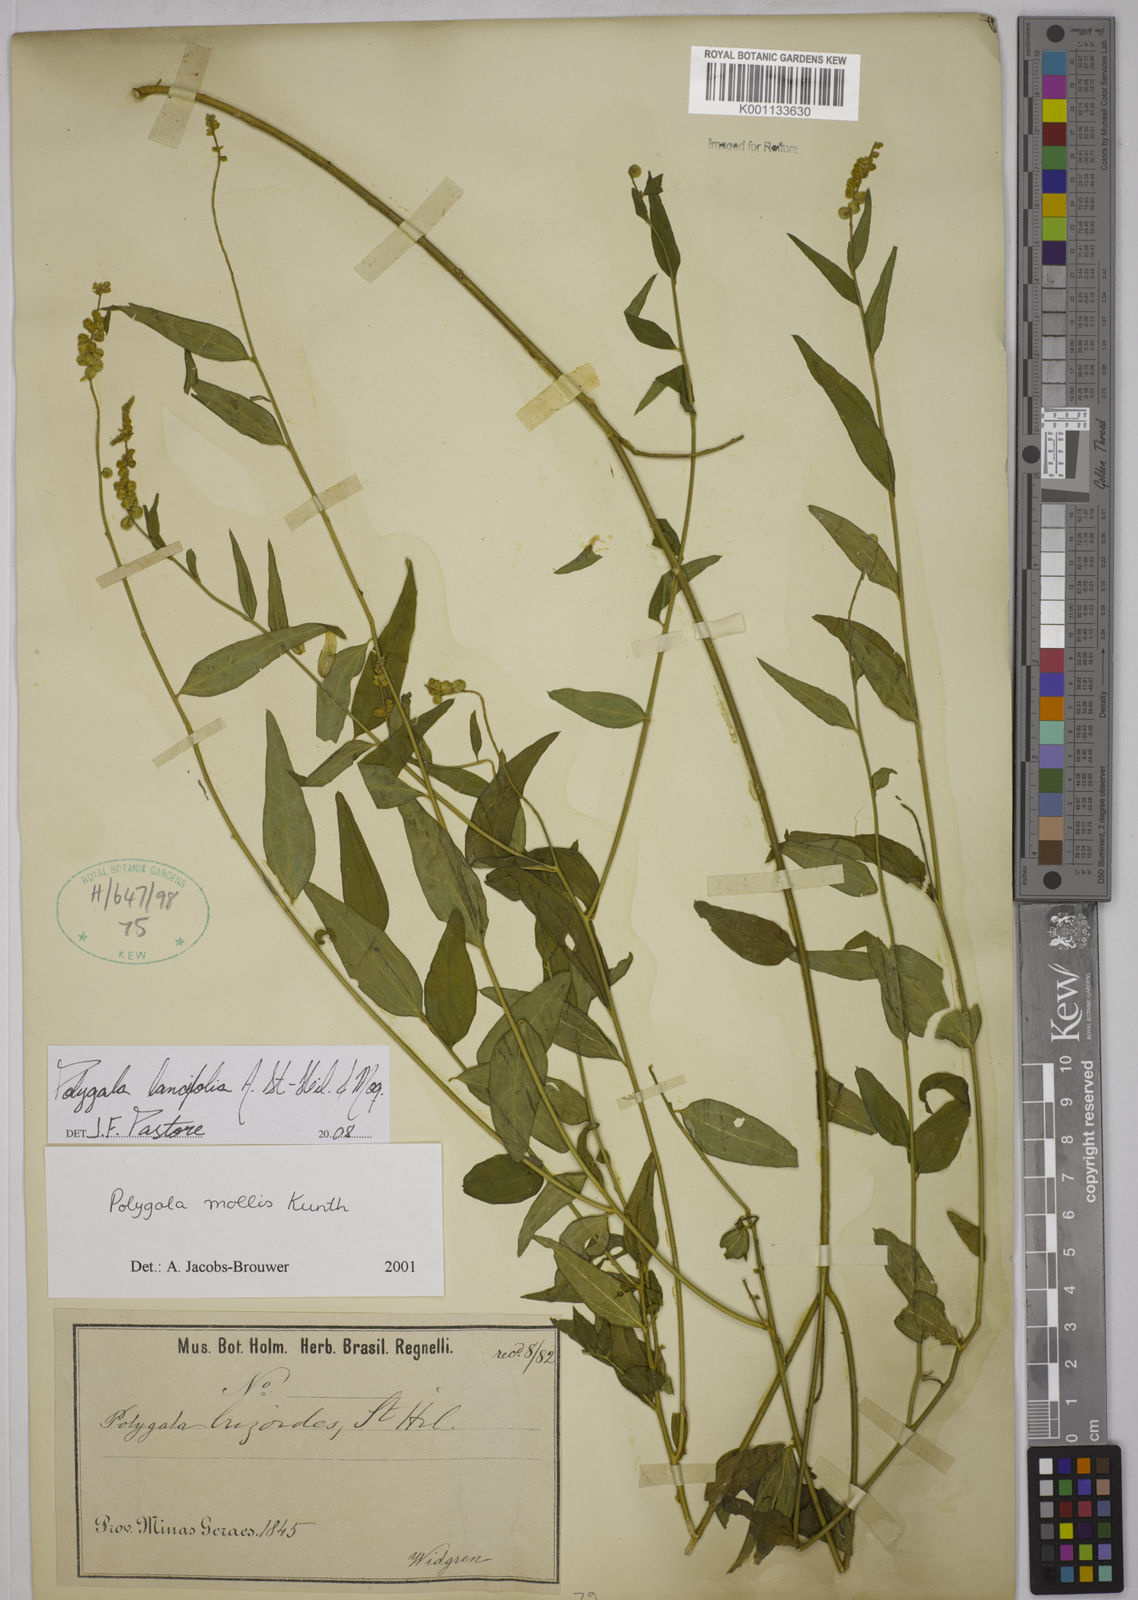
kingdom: Plantae
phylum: Tracheophyta
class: Magnoliopsida
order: Fabales
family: Polygalaceae
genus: Polygala
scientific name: Polygala lancifolia
